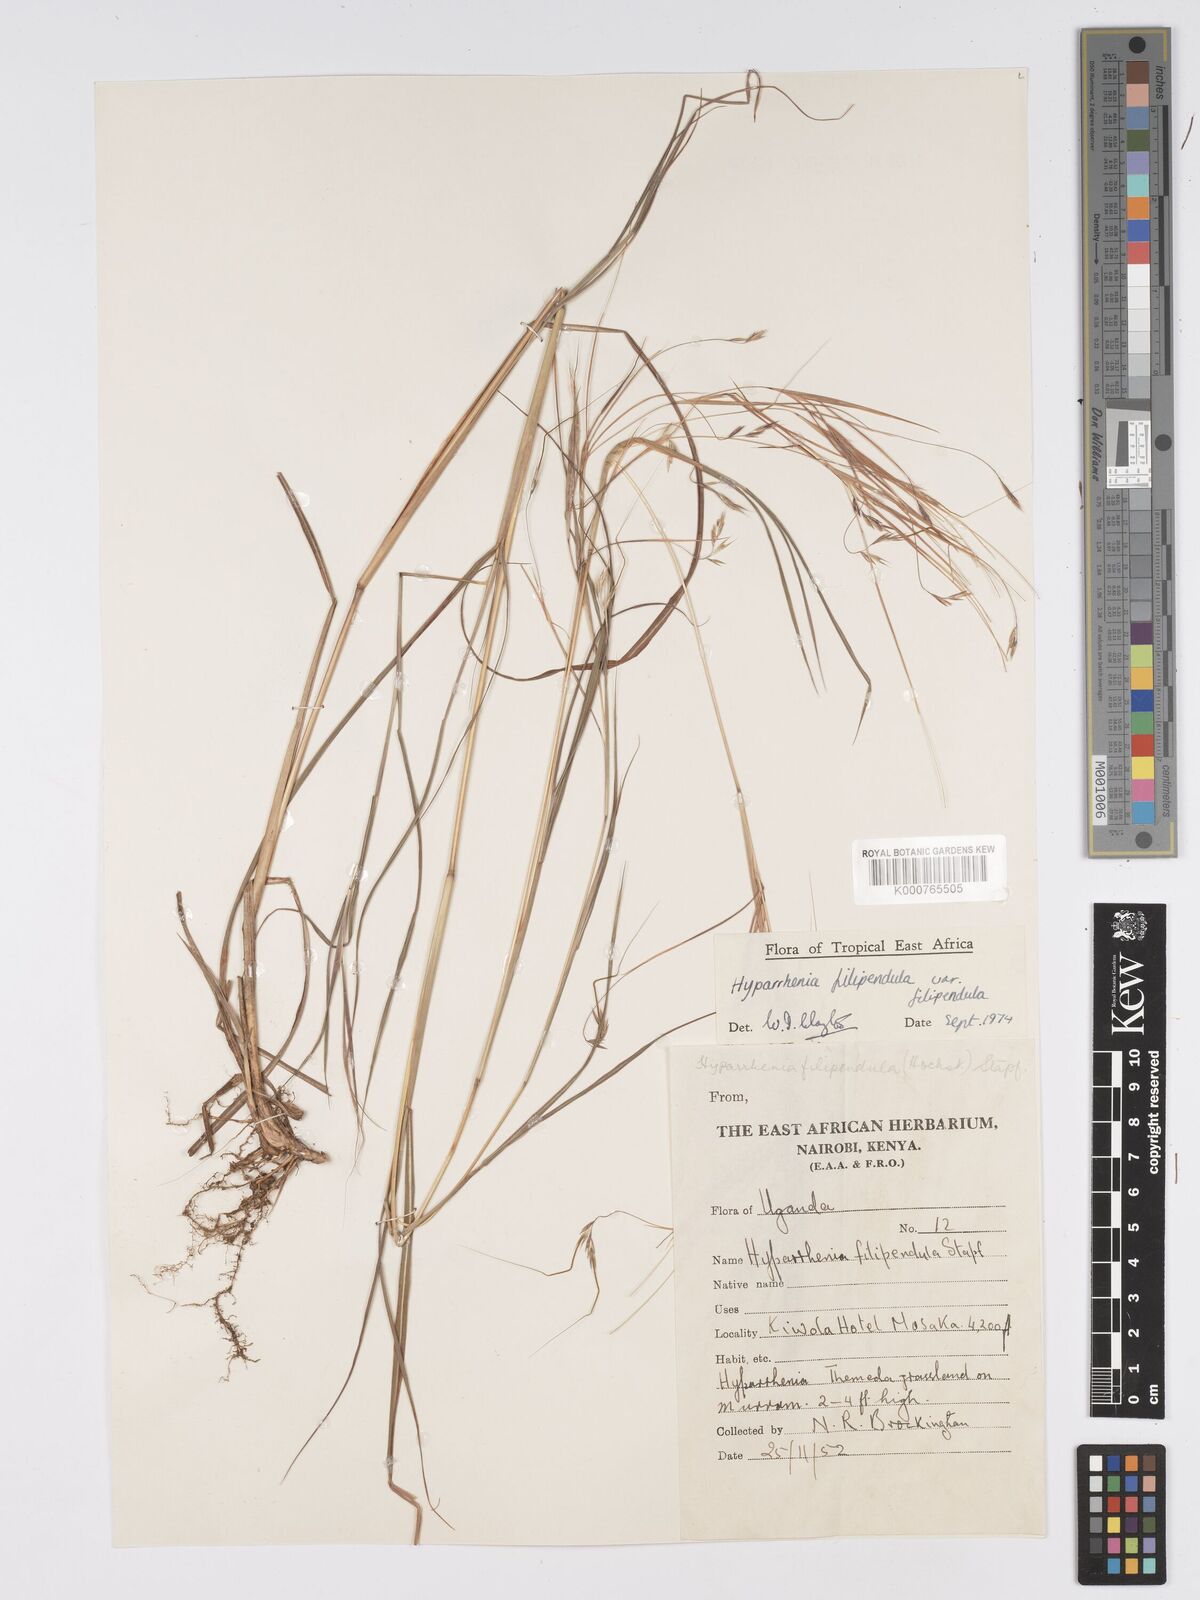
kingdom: Plantae
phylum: Tracheophyta
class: Liliopsida
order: Poales
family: Poaceae
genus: Hyparrhenia
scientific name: Hyparrhenia filipendula
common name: Tambookie grass
